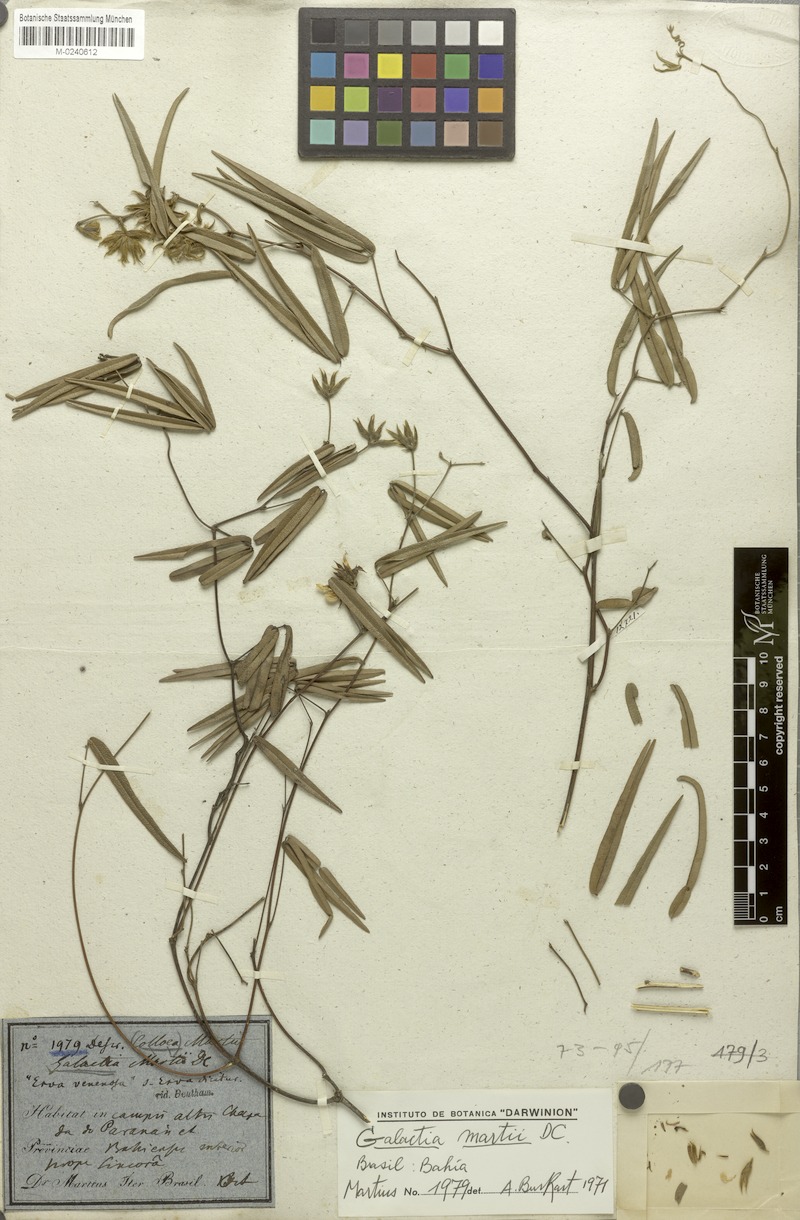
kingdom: Plantae
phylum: Tracheophyta
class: Magnoliopsida
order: Fabales
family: Fabaceae
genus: Betencourtia
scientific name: Betencourtia martii
